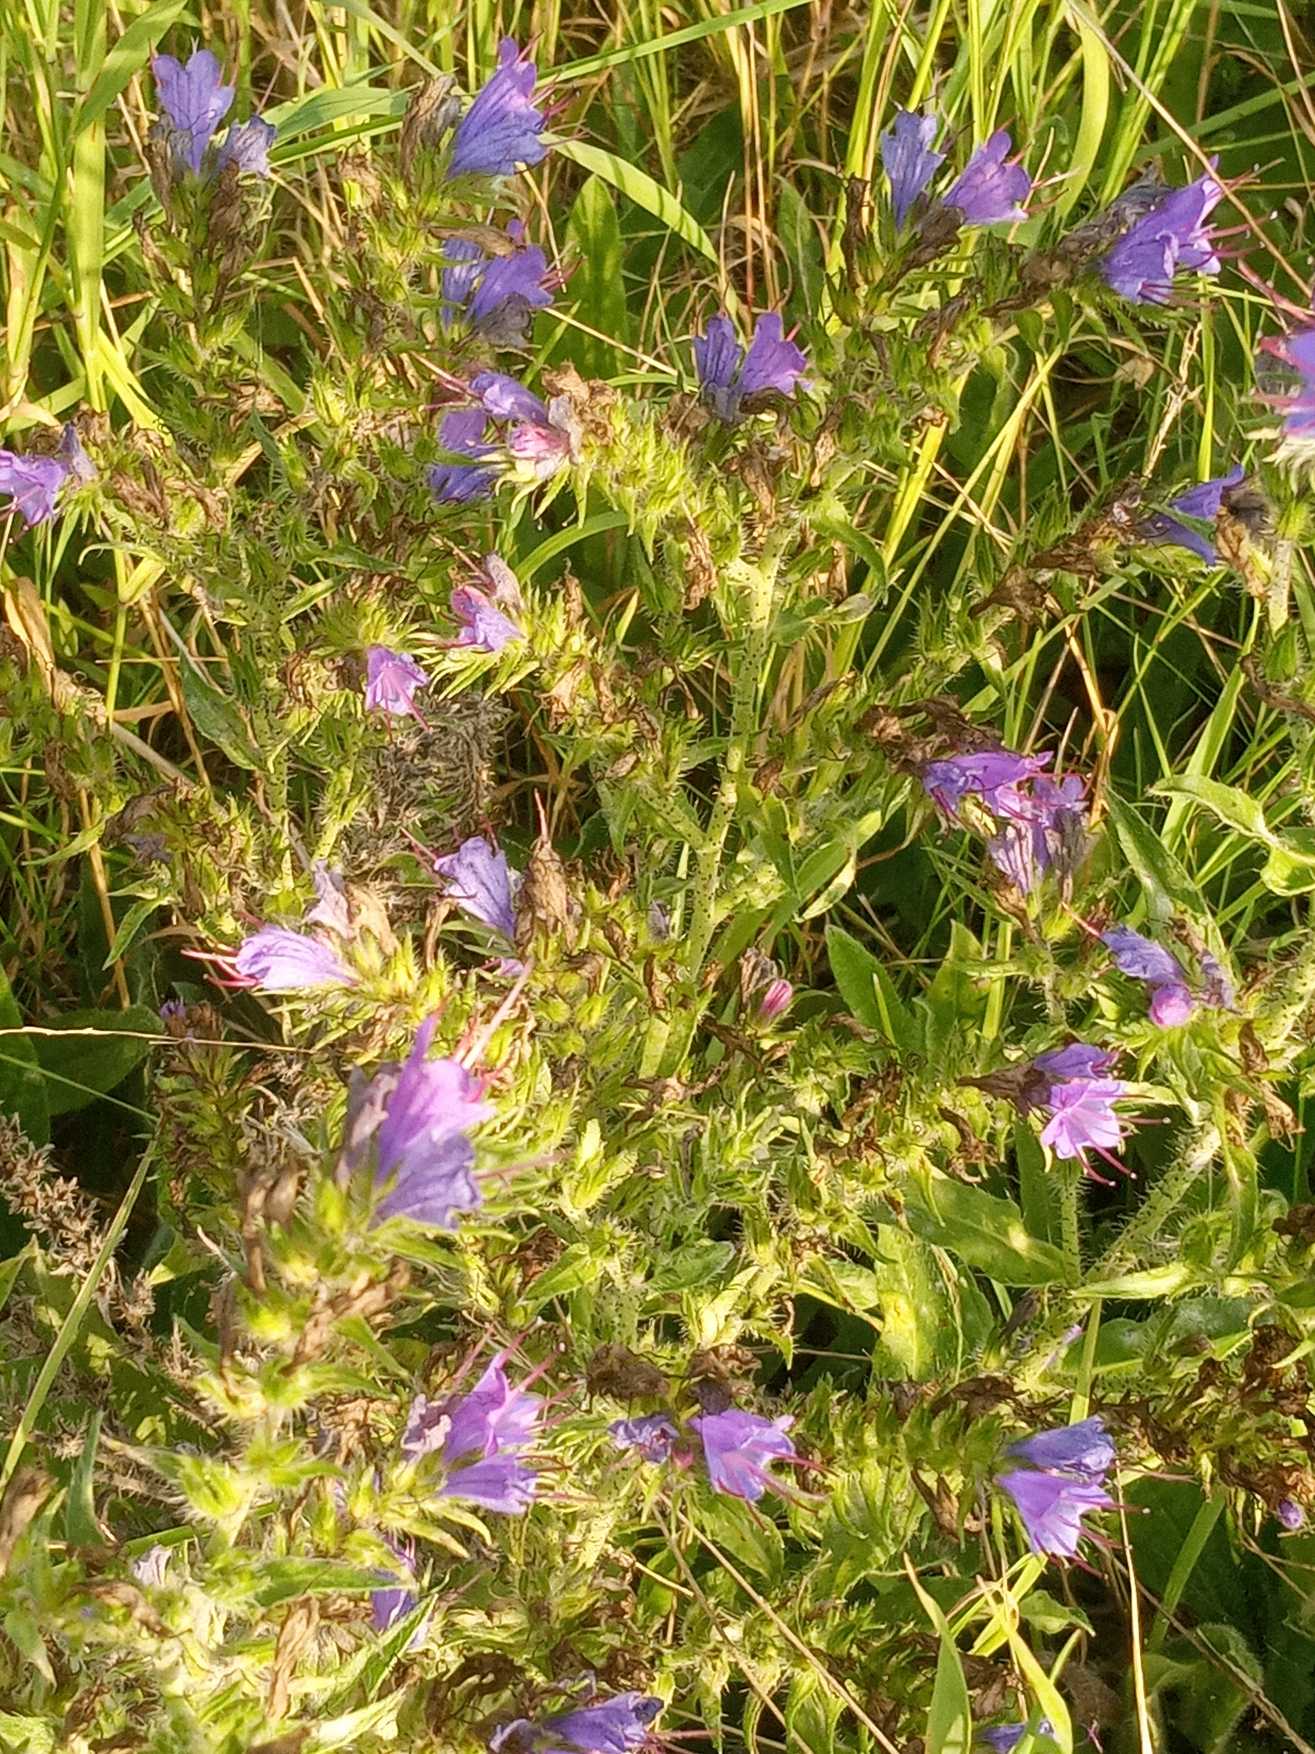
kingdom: Plantae
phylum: Tracheophyta
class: Magnoliopsida
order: Boraginales
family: Boraginaceae
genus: Echium
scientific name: Echium vulgare
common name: Slangehoved
